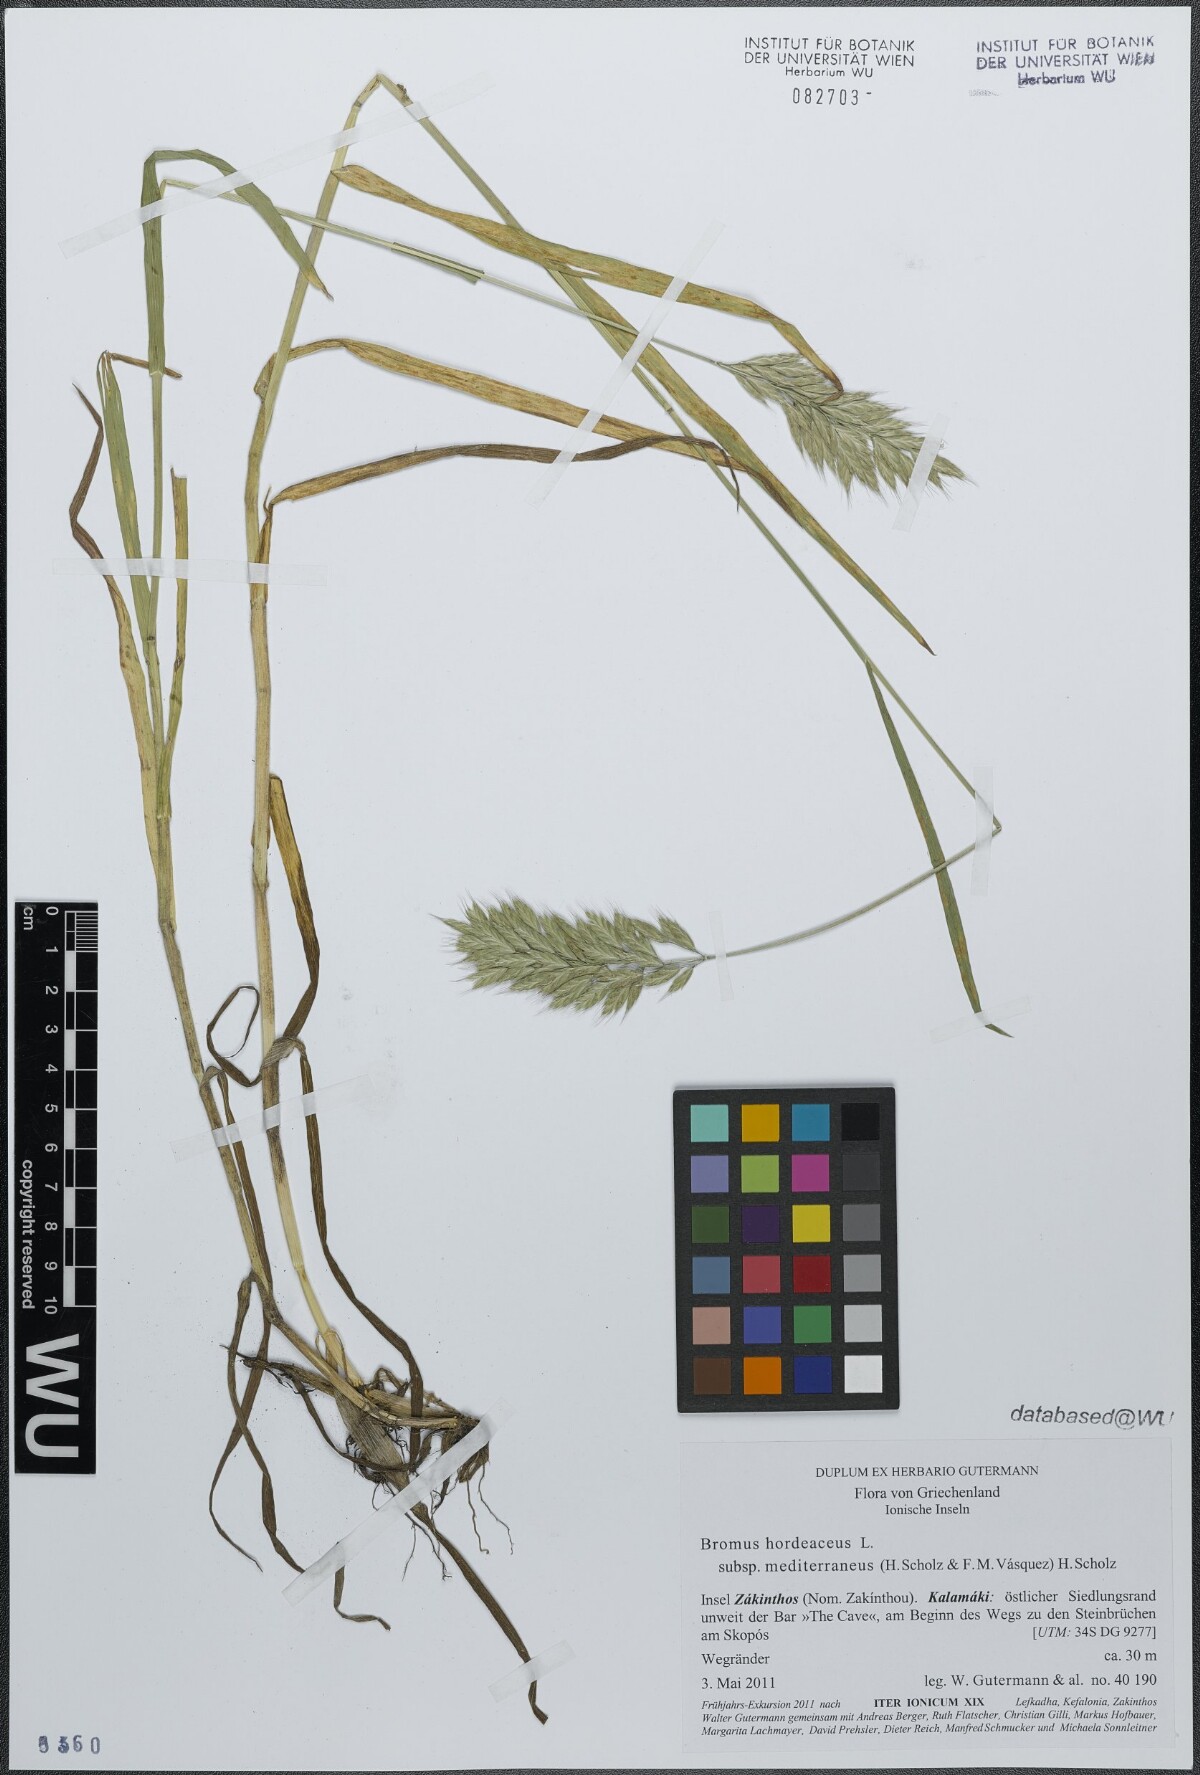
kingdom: Plantae
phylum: Tracheophyta
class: Liliopsida
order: Poales
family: Poaceae
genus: Bromus
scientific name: Bromus hordeaceus
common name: Soft brome
